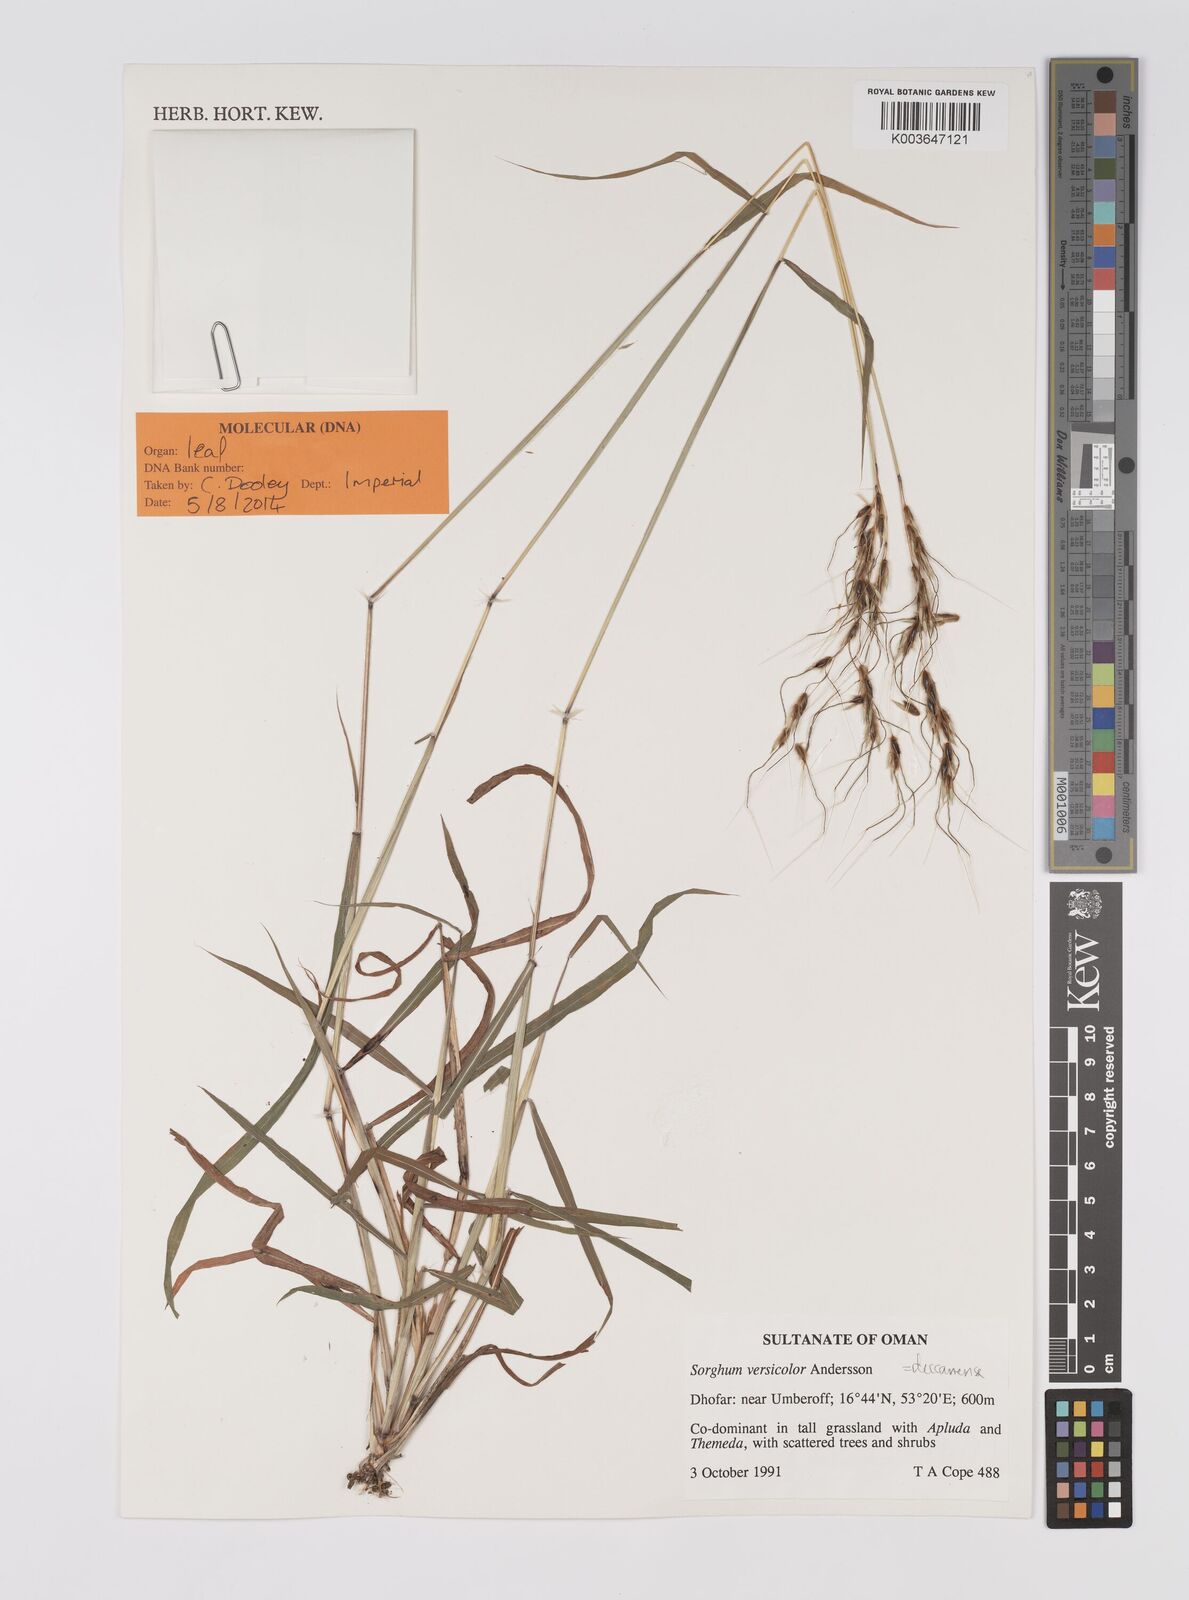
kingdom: Plantae
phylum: Tracheophyta
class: Liliopsida
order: Poales
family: Poaceae
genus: Sarga
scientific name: Sarga purpureosericea
